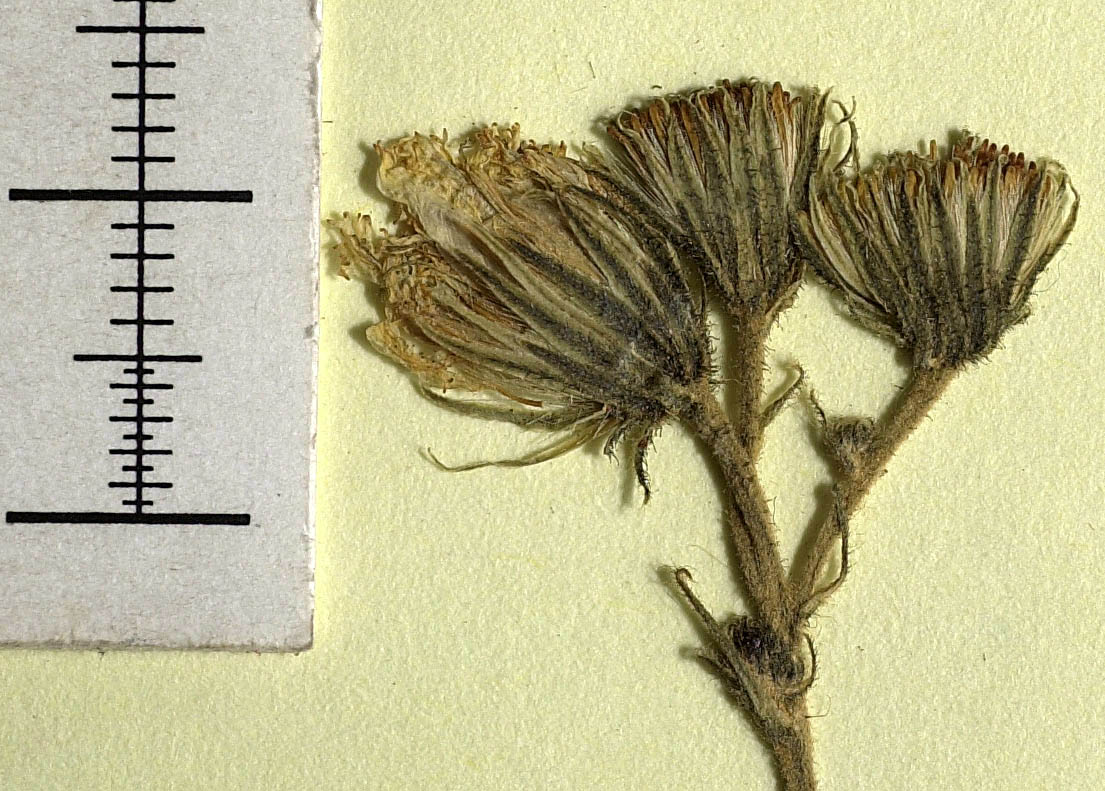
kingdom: Plantae
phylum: Tracheophyta
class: Magnoliopsida
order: Asterales
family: Asteraceae
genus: Hieracium
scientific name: Hieracium lachenalii
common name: Common hawkweed
